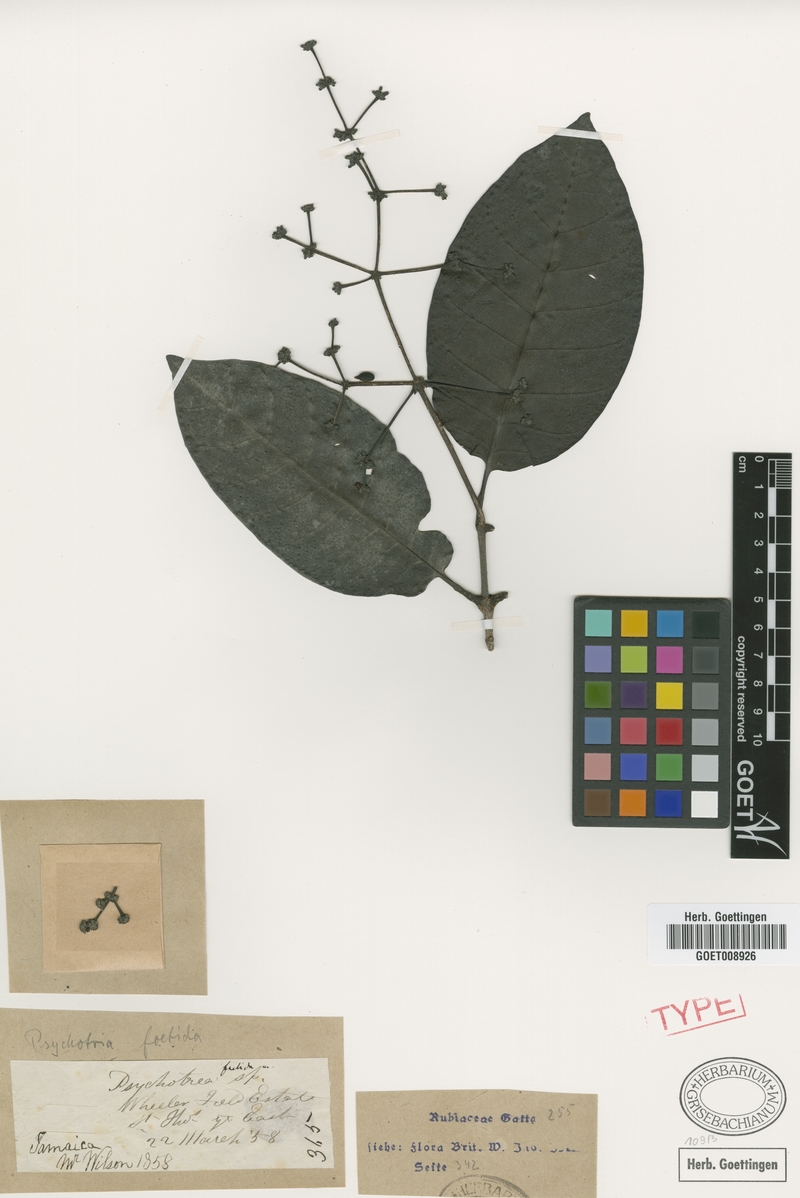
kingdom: Plantae
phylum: Tracheophyta
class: Magnoliopsida
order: Gentianales
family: Rubiaceae
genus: Psychotria
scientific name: Psychotria foetida
